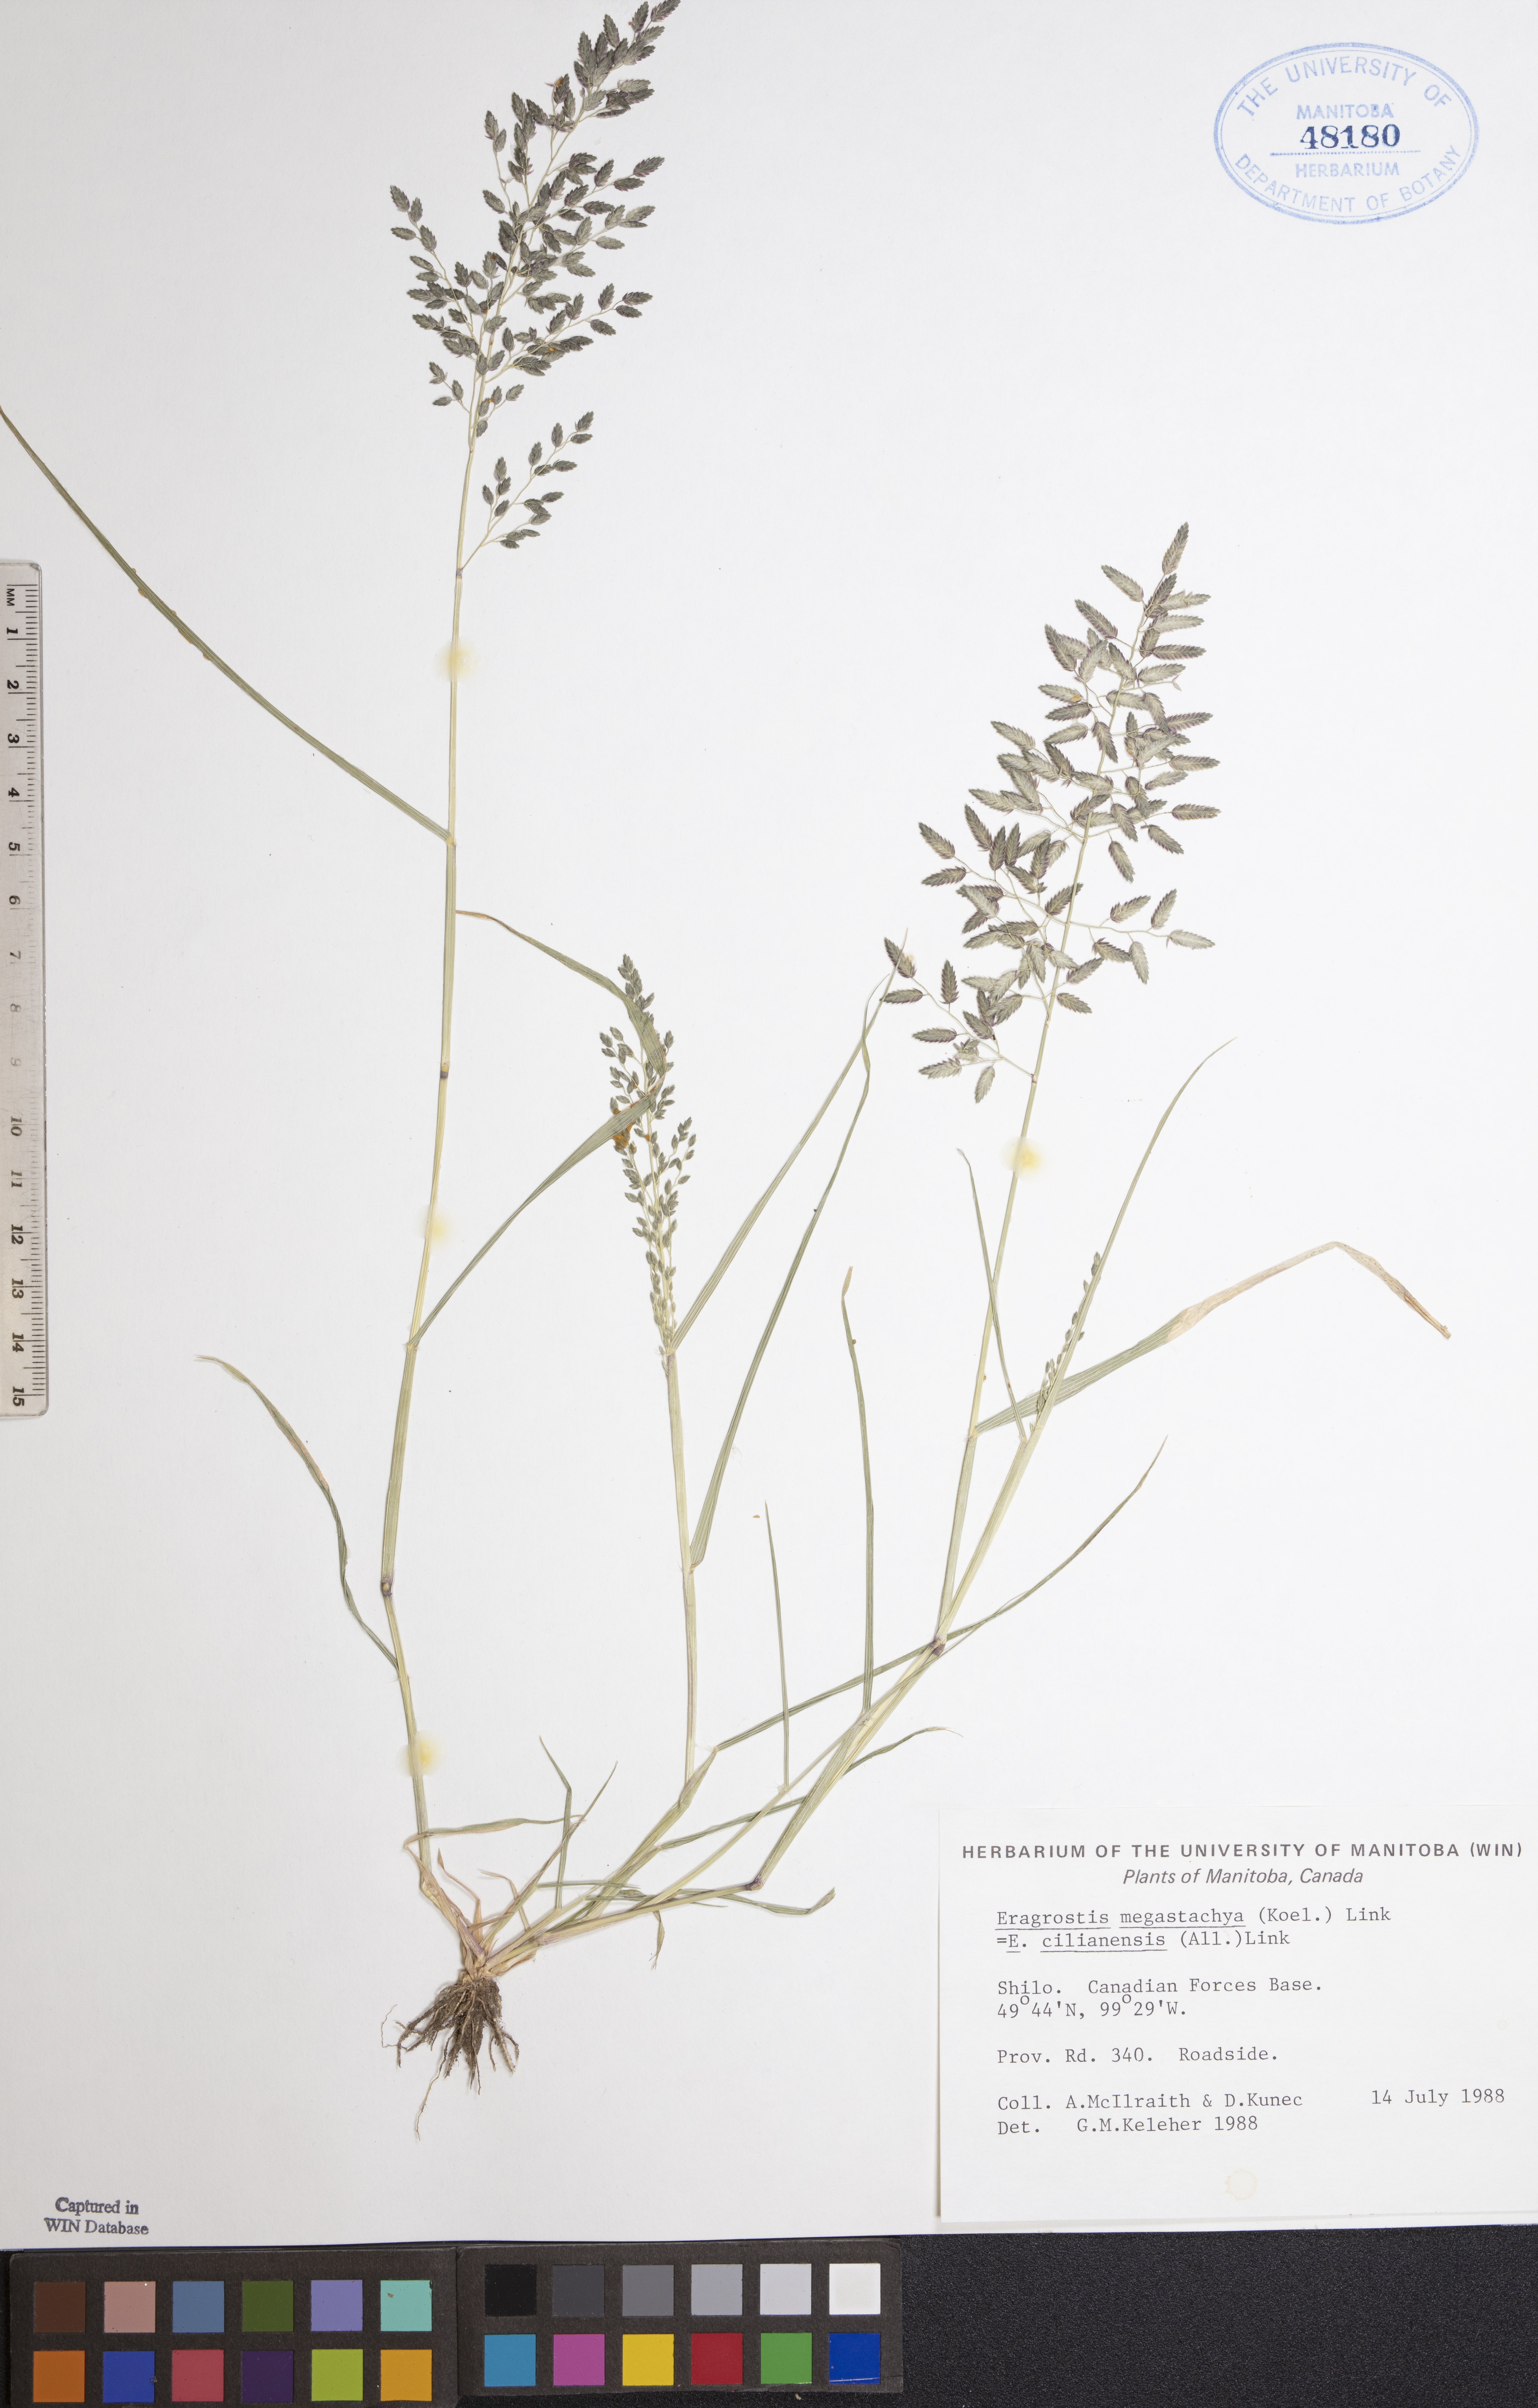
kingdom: Plantae
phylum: Tracheophyta
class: Liliopsida
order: Poales
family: Poaceae
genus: Eragrostis
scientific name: Eragrostis cilianensis
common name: Stinkgrass
